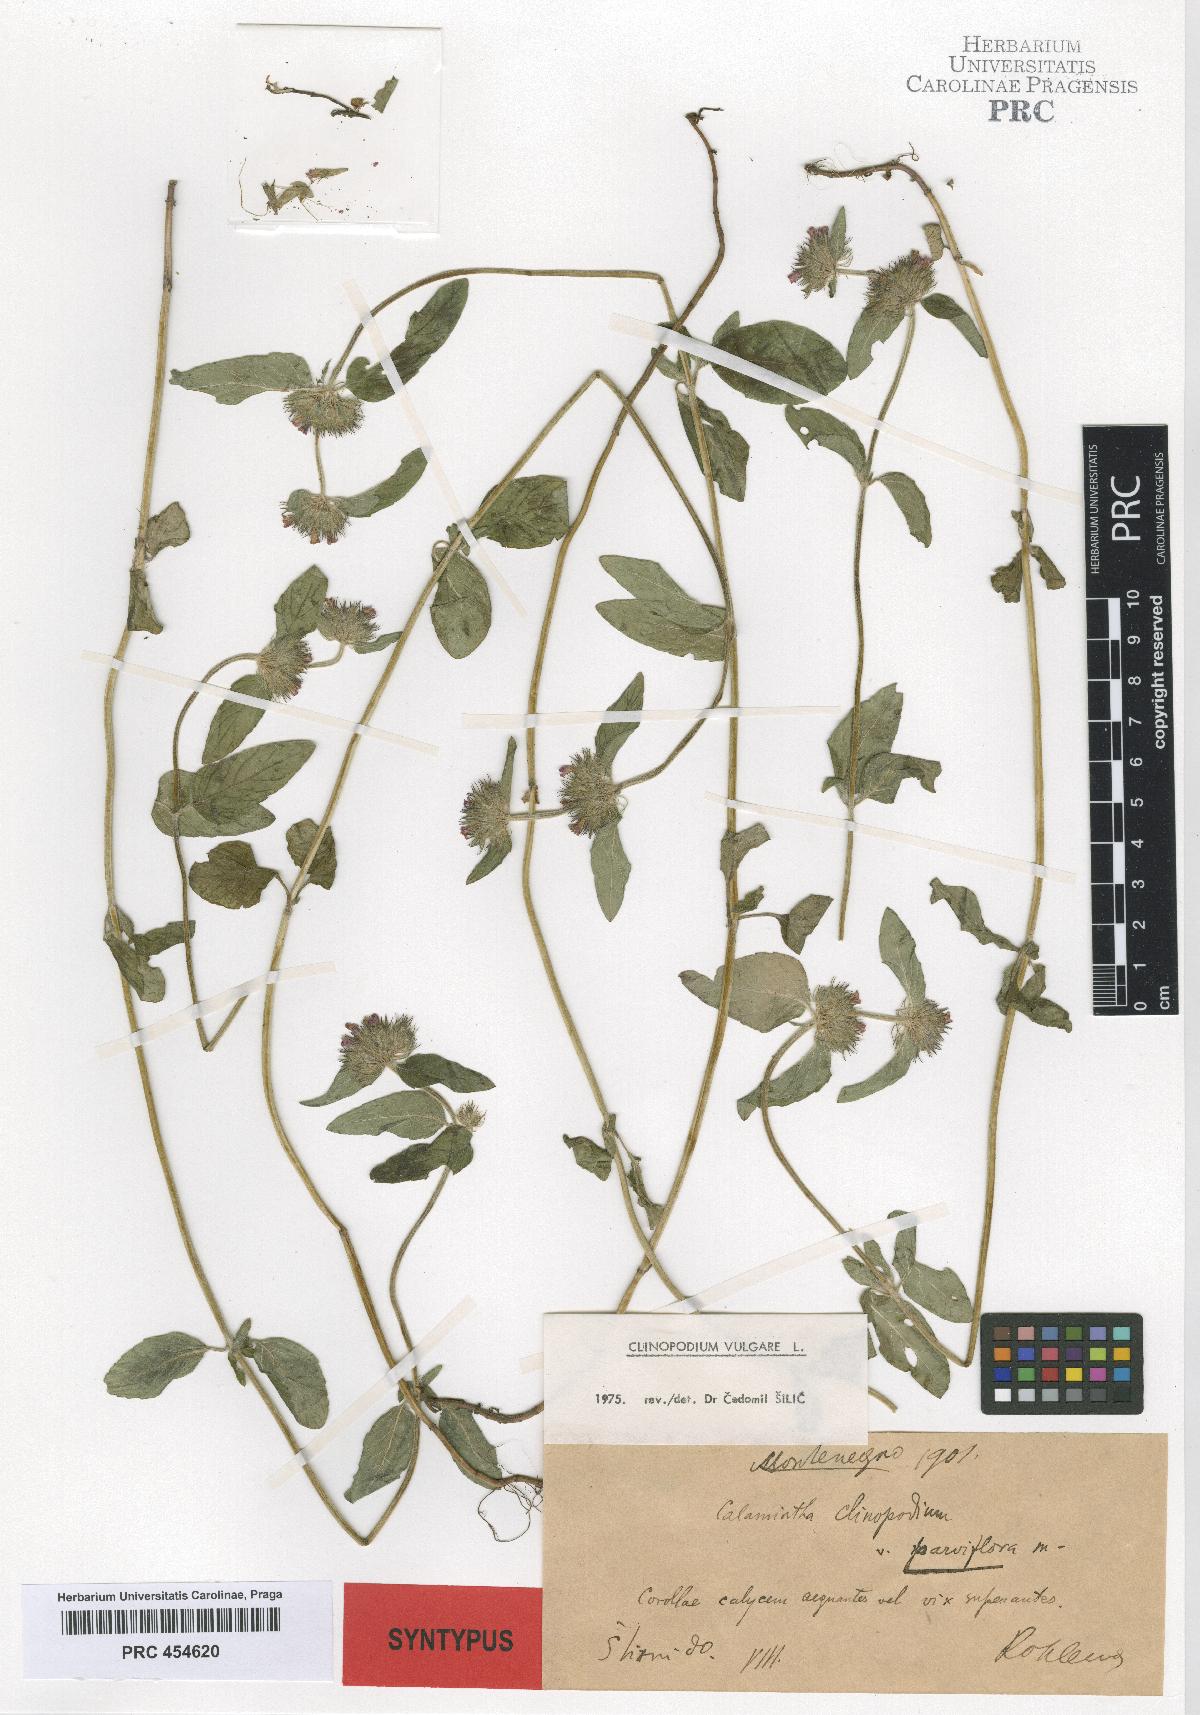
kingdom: Plantae
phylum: Tracheophyta
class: Magnoliopsida
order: Lamiales
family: Lamiaceae
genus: Clinopodium
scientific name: Clinopodium vulgare
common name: Wild basil
